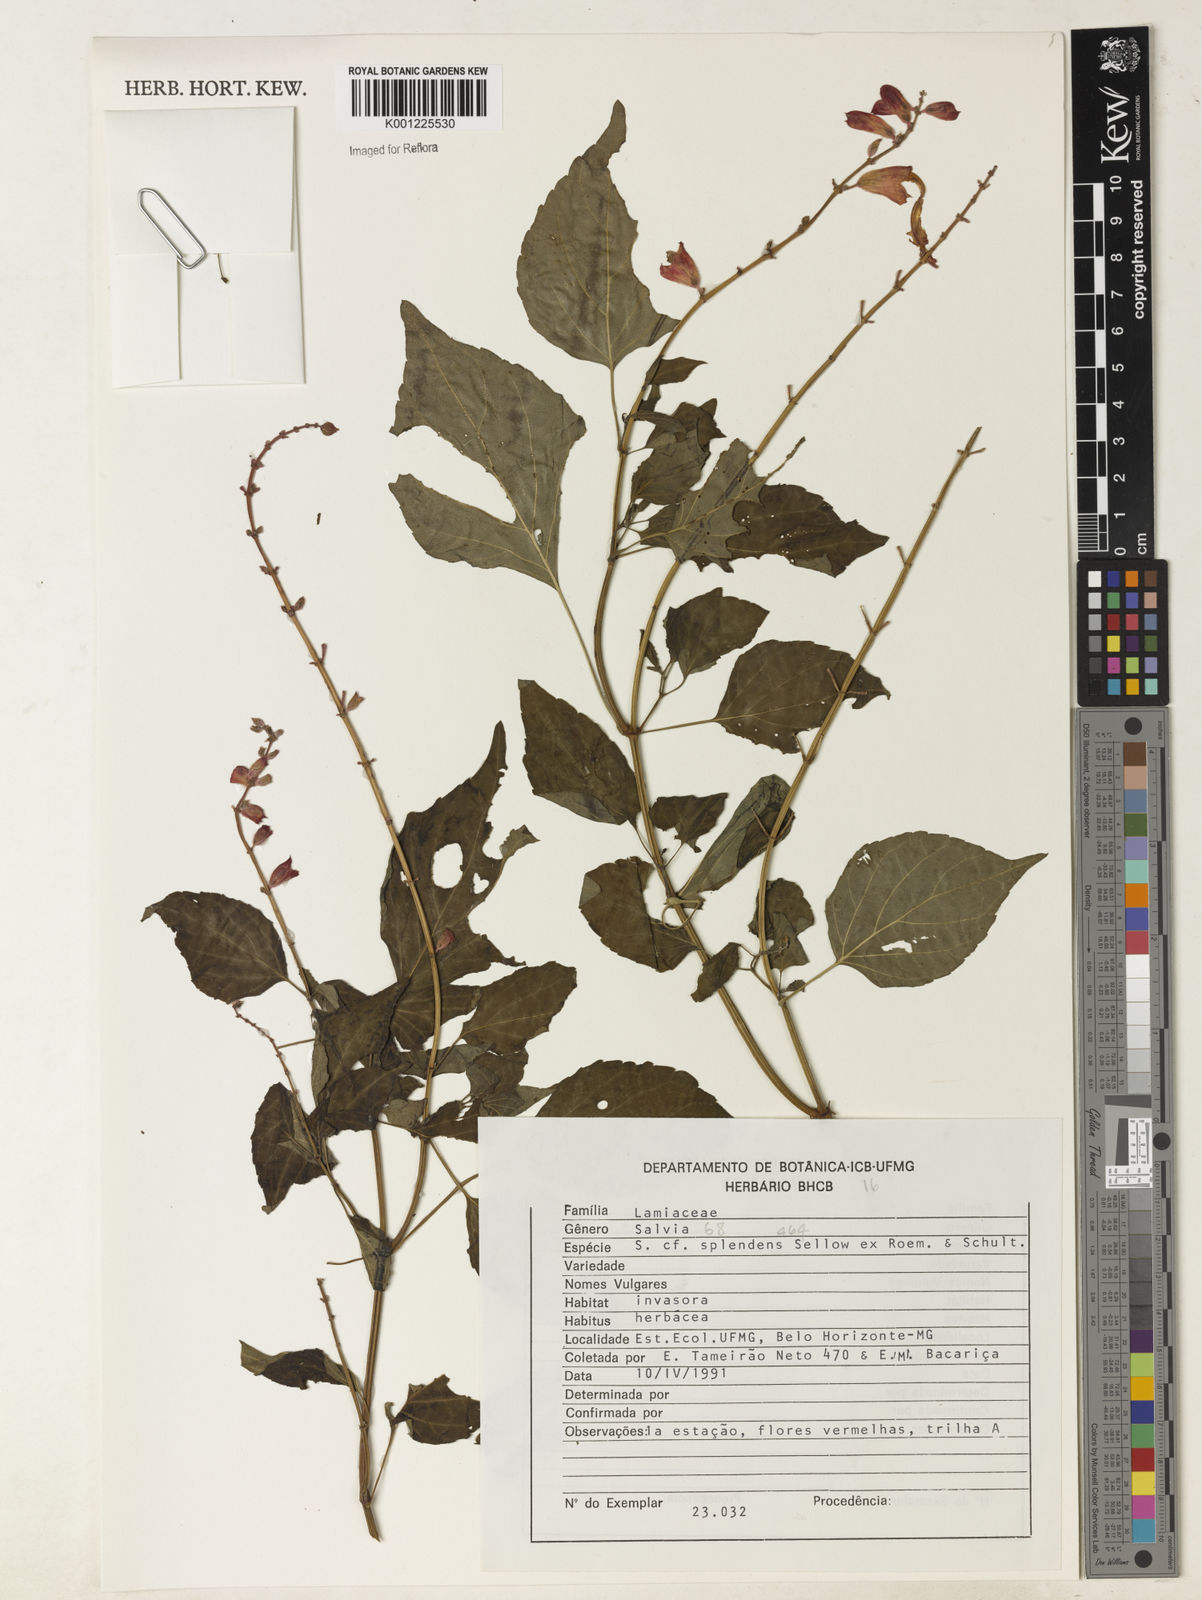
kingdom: Plantae
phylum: Tracheophyta
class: Magnoliopsida
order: Lamiales
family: Lamiaceae
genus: Salvia
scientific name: Salvia
